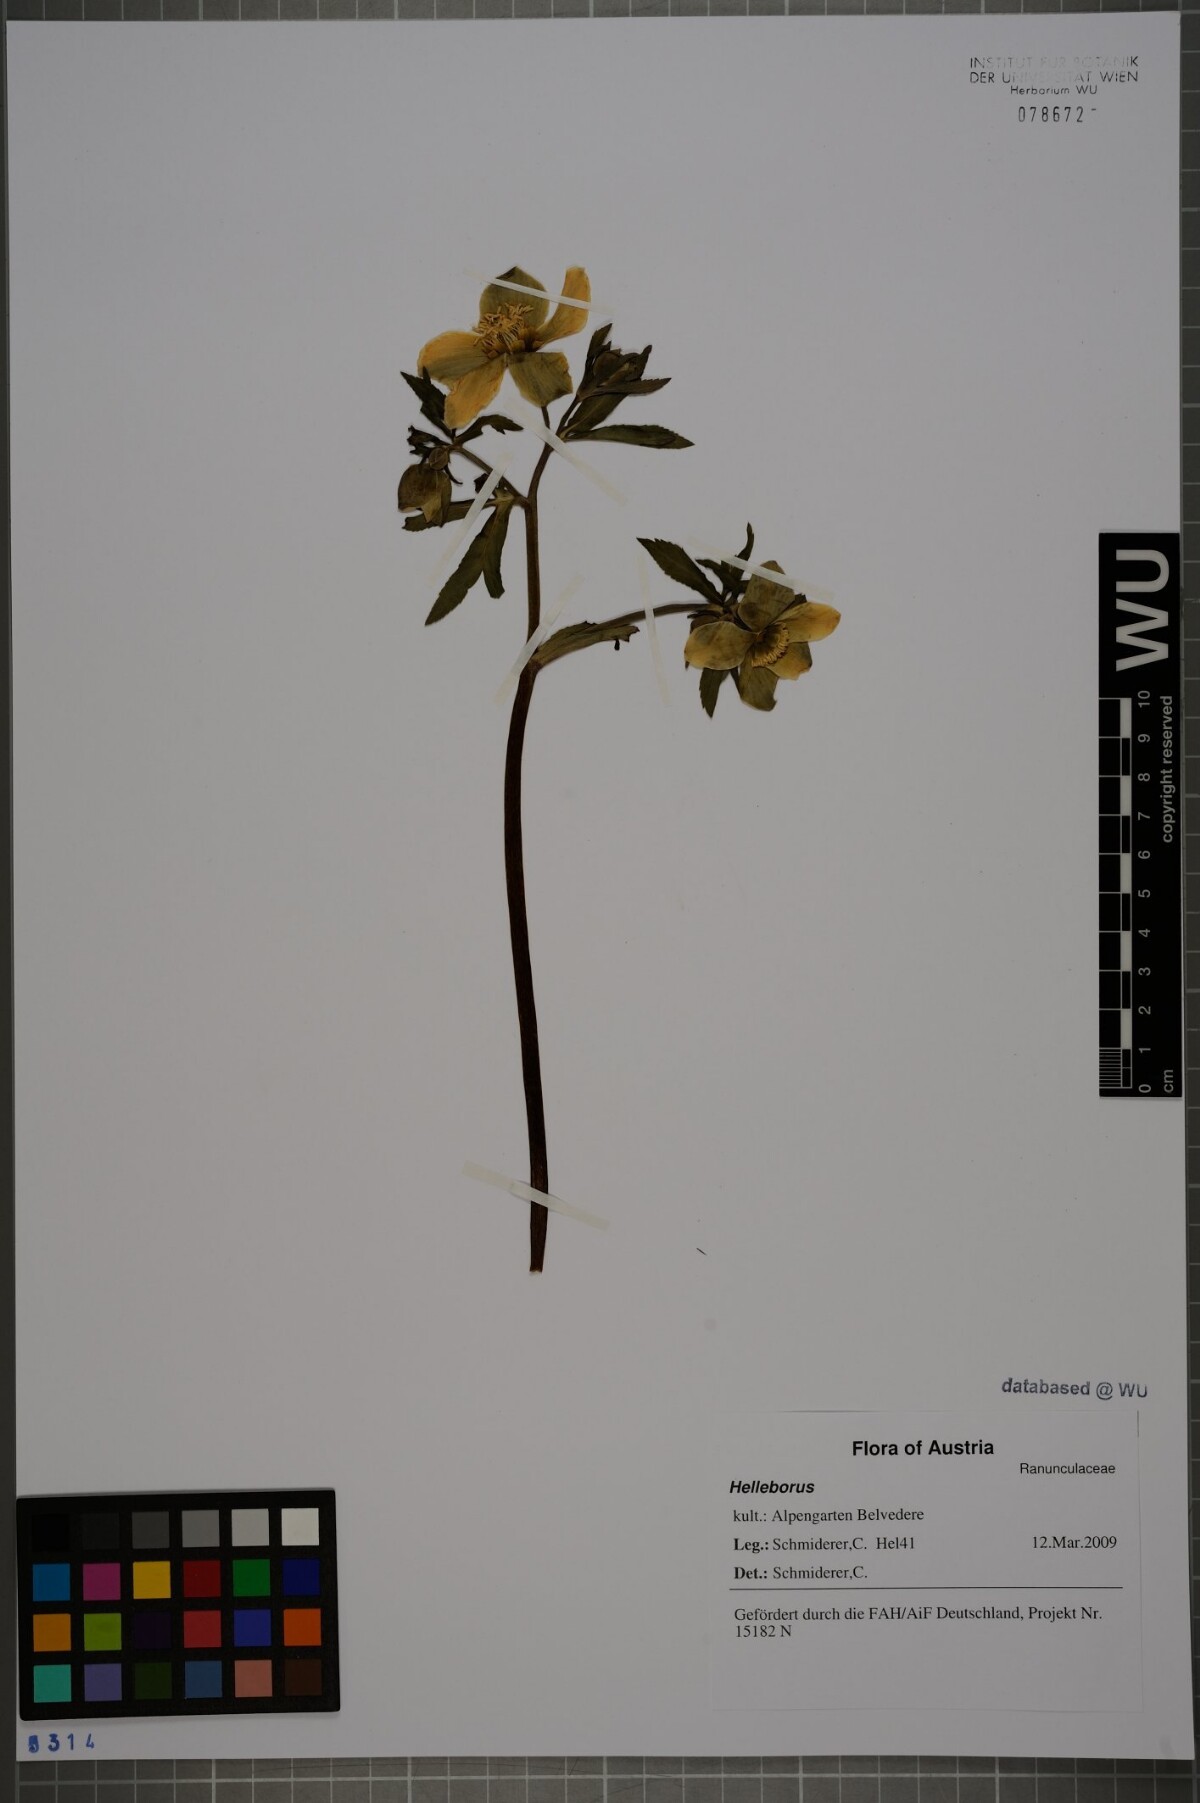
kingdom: Plantae
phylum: Tracheophyta
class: Magnoliopsida
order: Ranunculales
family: Ranunculaceae
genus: Helleborus
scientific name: Helleborus
